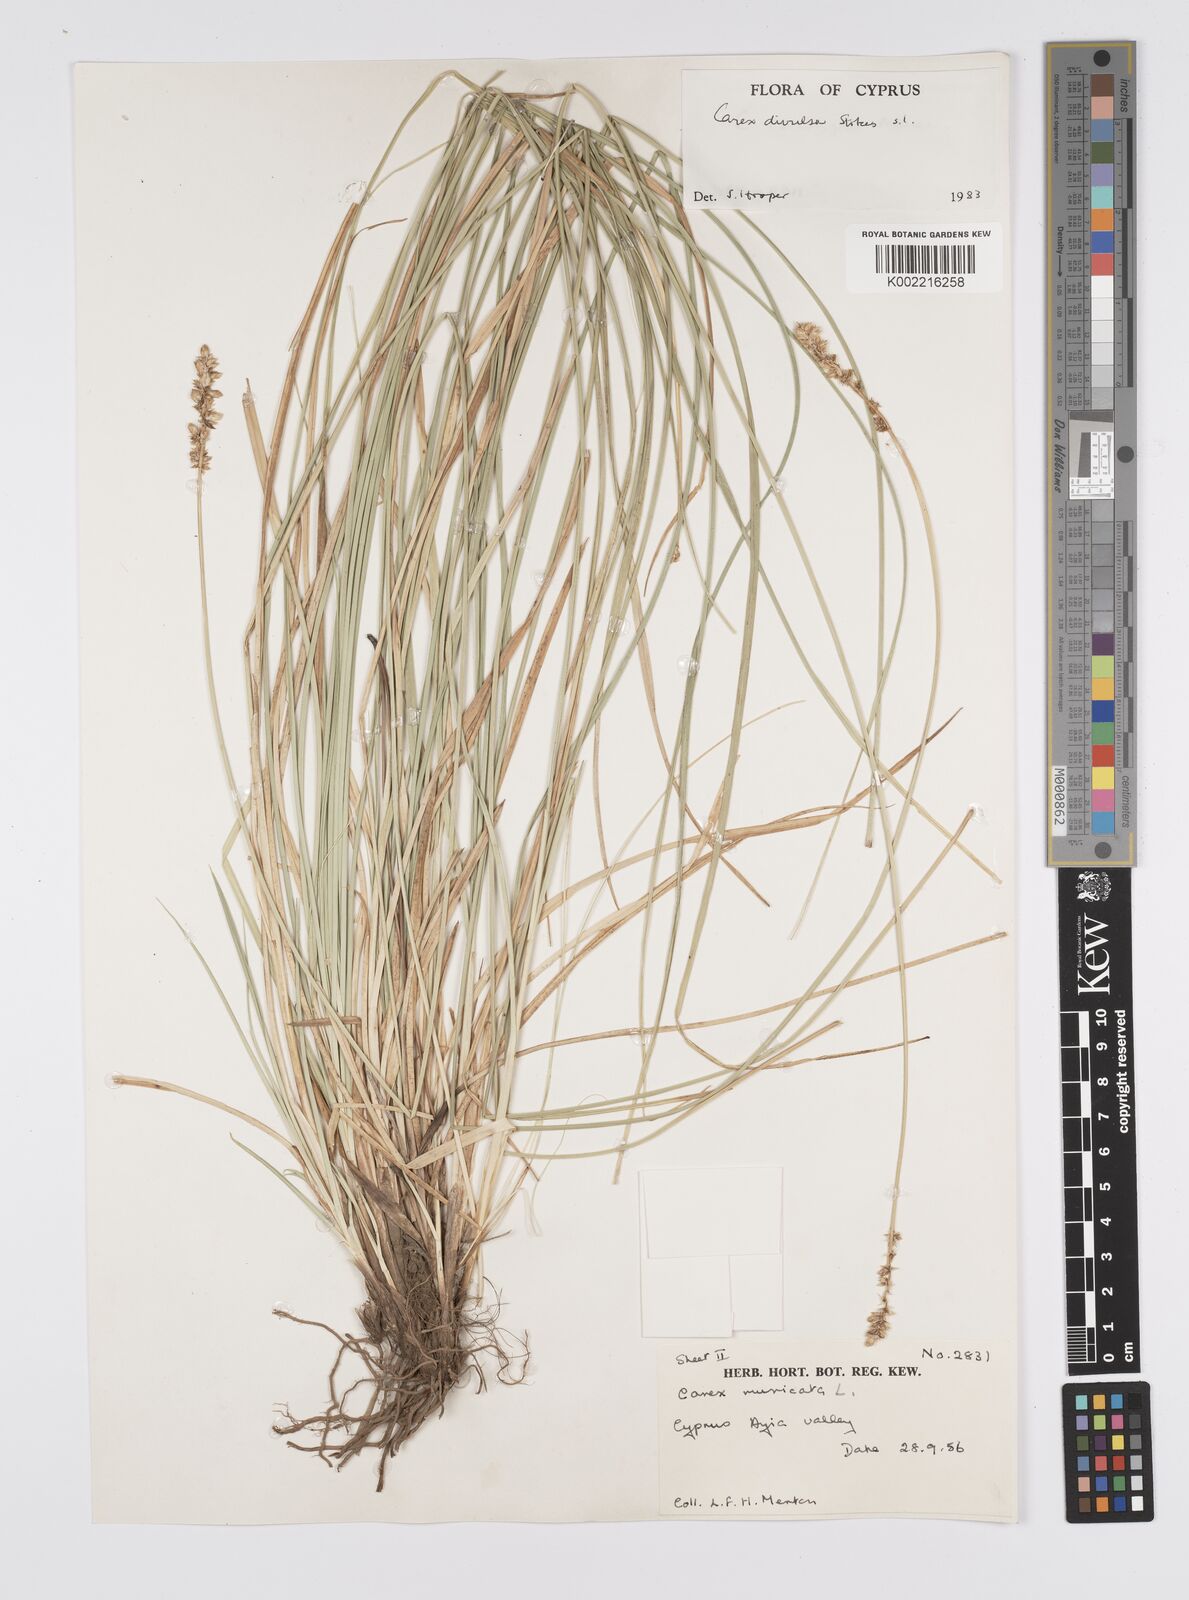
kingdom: Plantae
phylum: Tracheophyta
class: Liliopsida
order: Poales
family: Cyperaceae
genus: Carex
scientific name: Carex divulsa
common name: Grassland sedge
